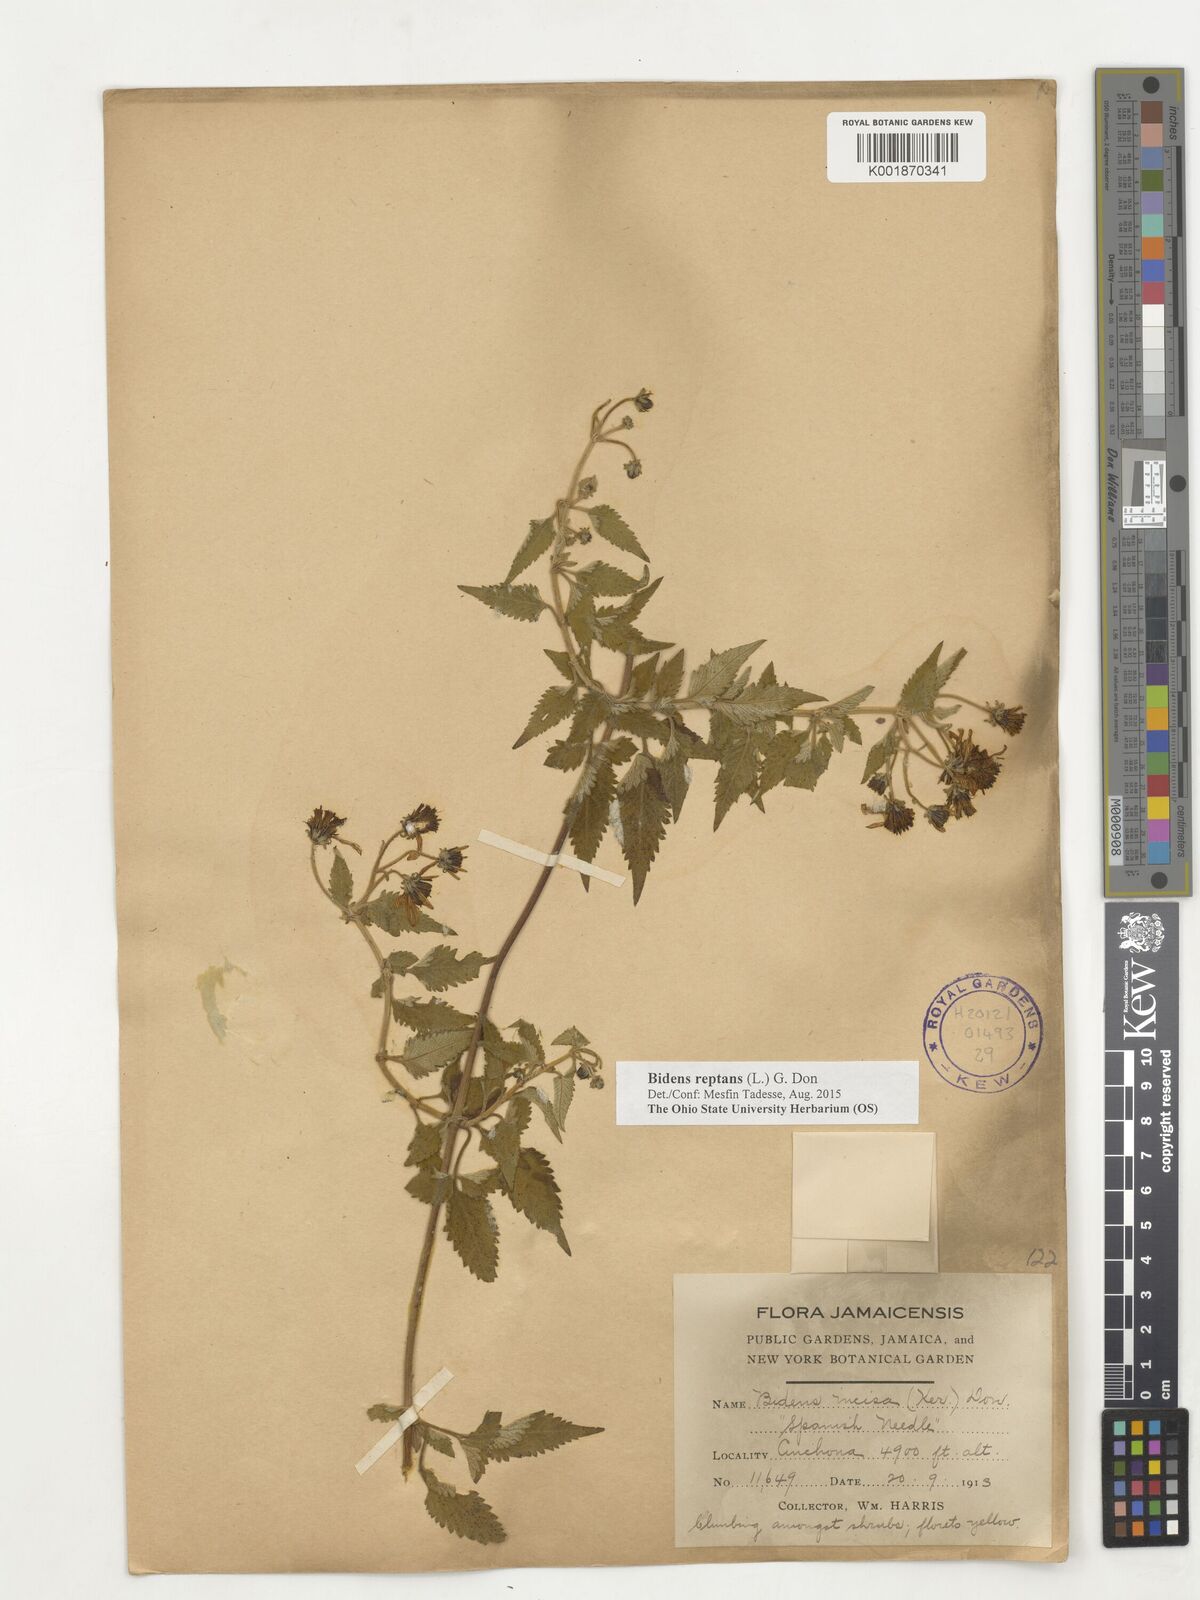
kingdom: Plantae
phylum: Tracheophyta
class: Magnoliopsida
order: Asterales
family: Asteraceae
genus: Bidens
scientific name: Bidens reptans
